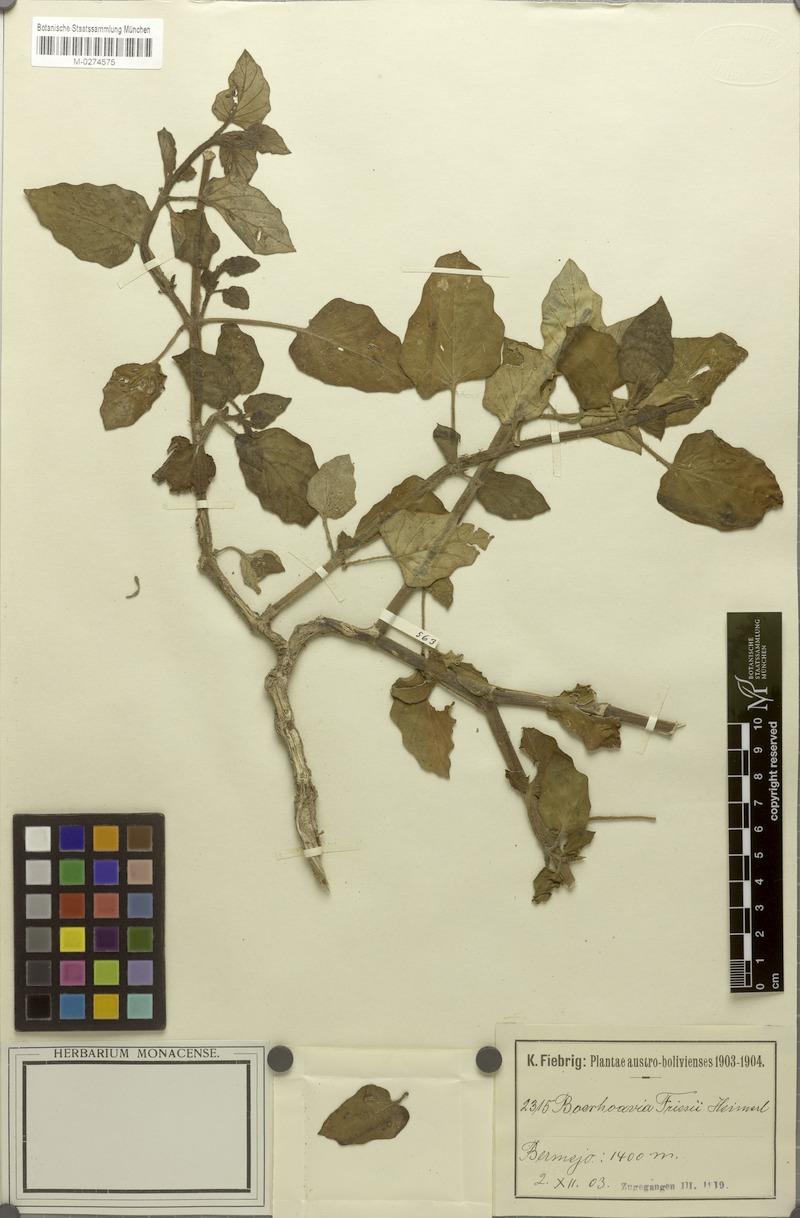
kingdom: Plantae
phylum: Tracheophyta
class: Magnoliopsida
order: Caryophyllales
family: Nyctaginaceae
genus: Boerhavia
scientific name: Boerhavia diffusa
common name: Red spiderling
